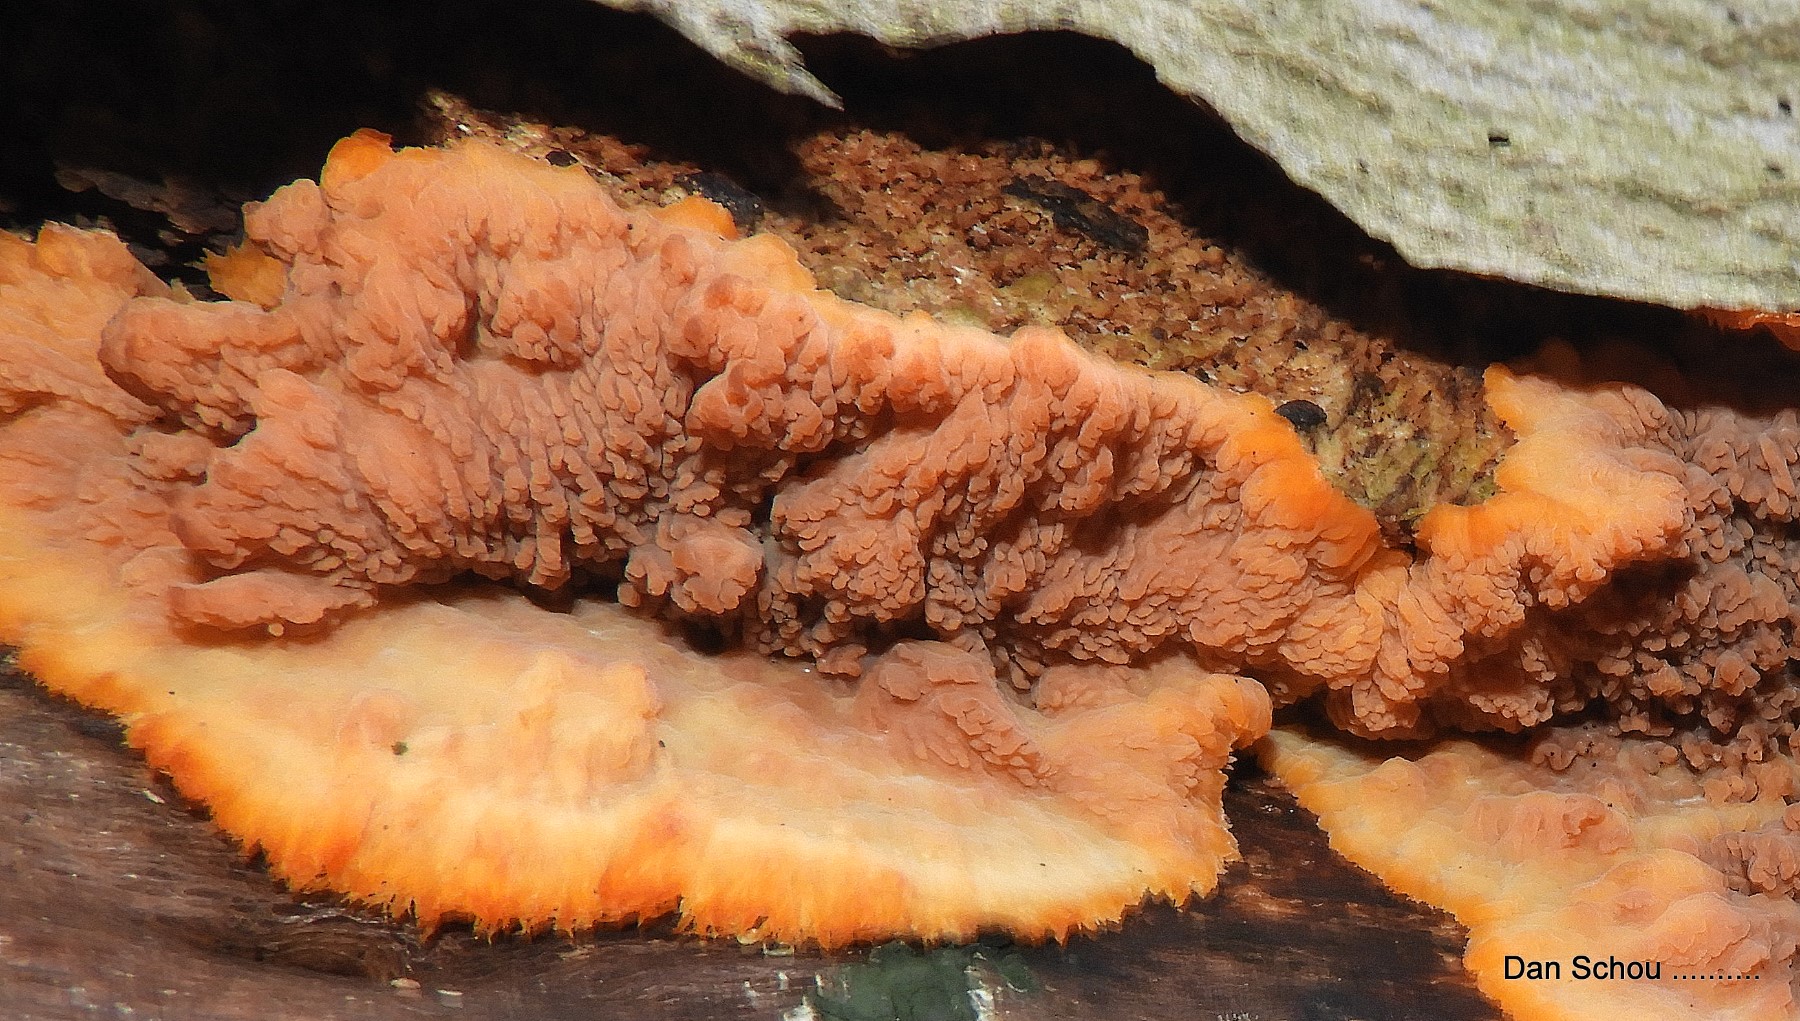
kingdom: Fungi
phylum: Basidiomycota
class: Agaricomycetes
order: Polyporales
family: Meruliaceae
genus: Phlebia
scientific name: Phlebia radiata
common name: stråle-åresvamp
